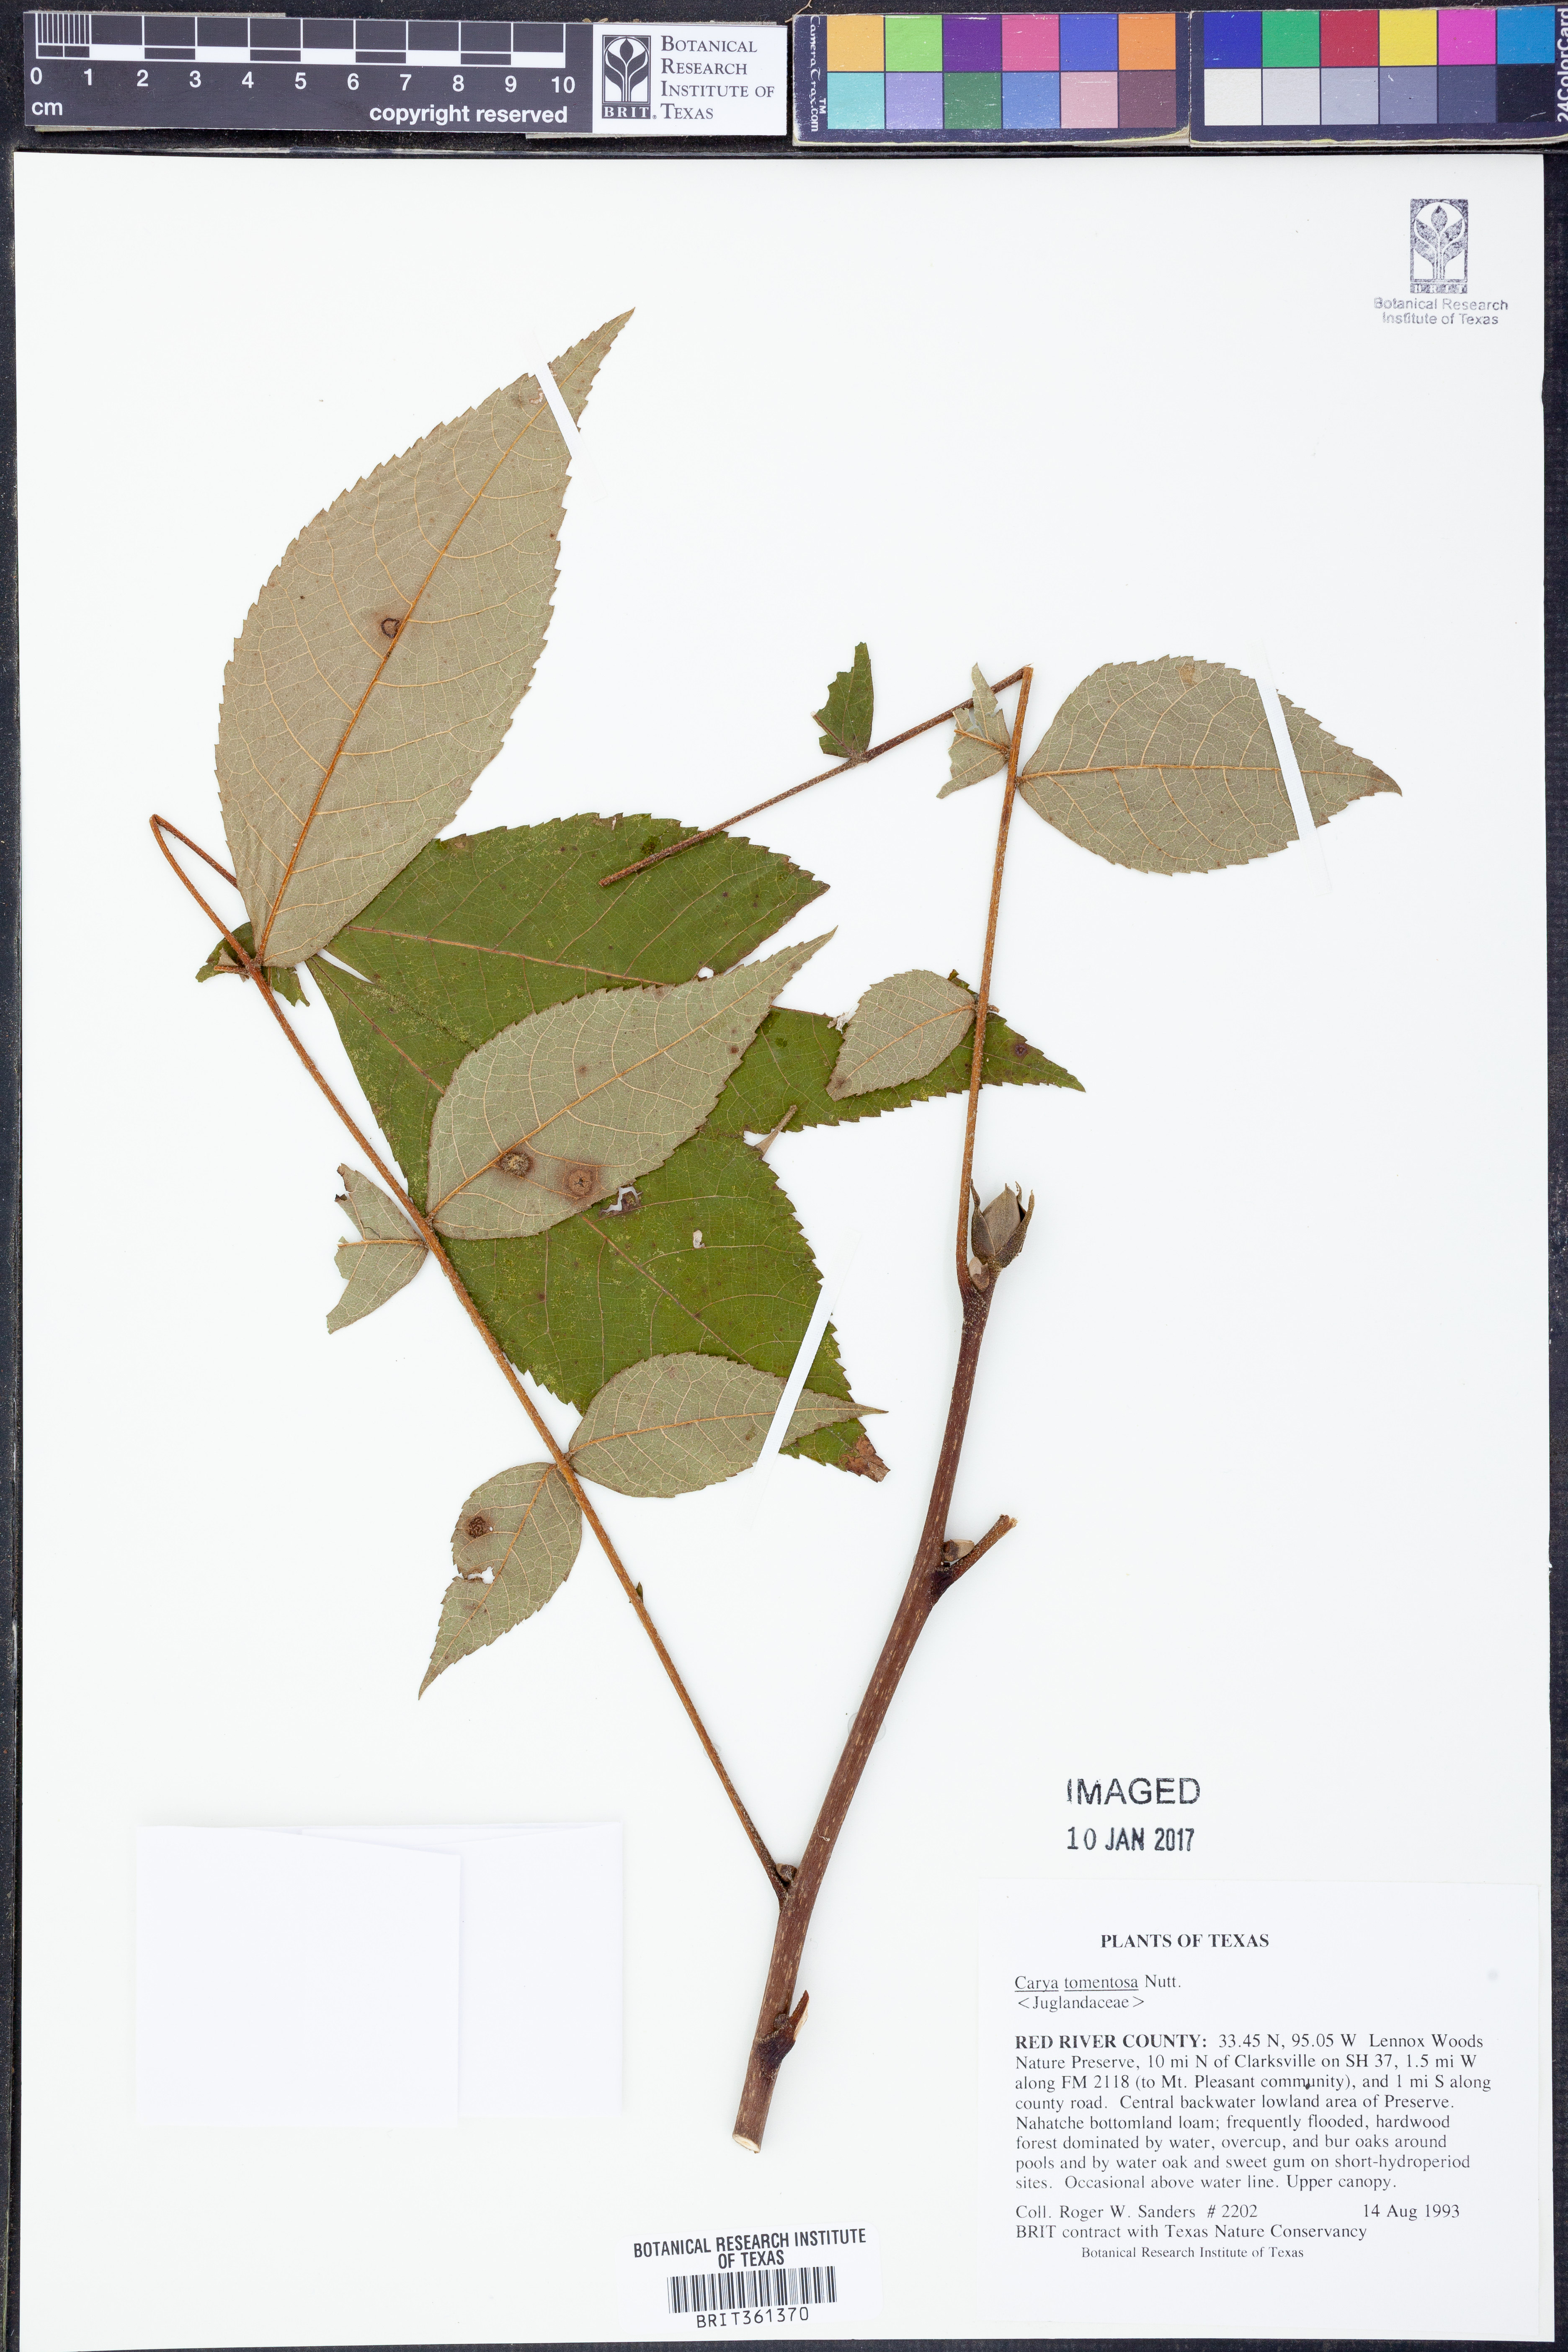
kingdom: Plantae
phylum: Tracheophyta
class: Magnoliopsida
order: Fagales
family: Juglandaceae
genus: Carya
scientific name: Carya alba
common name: Mockernut hickory
